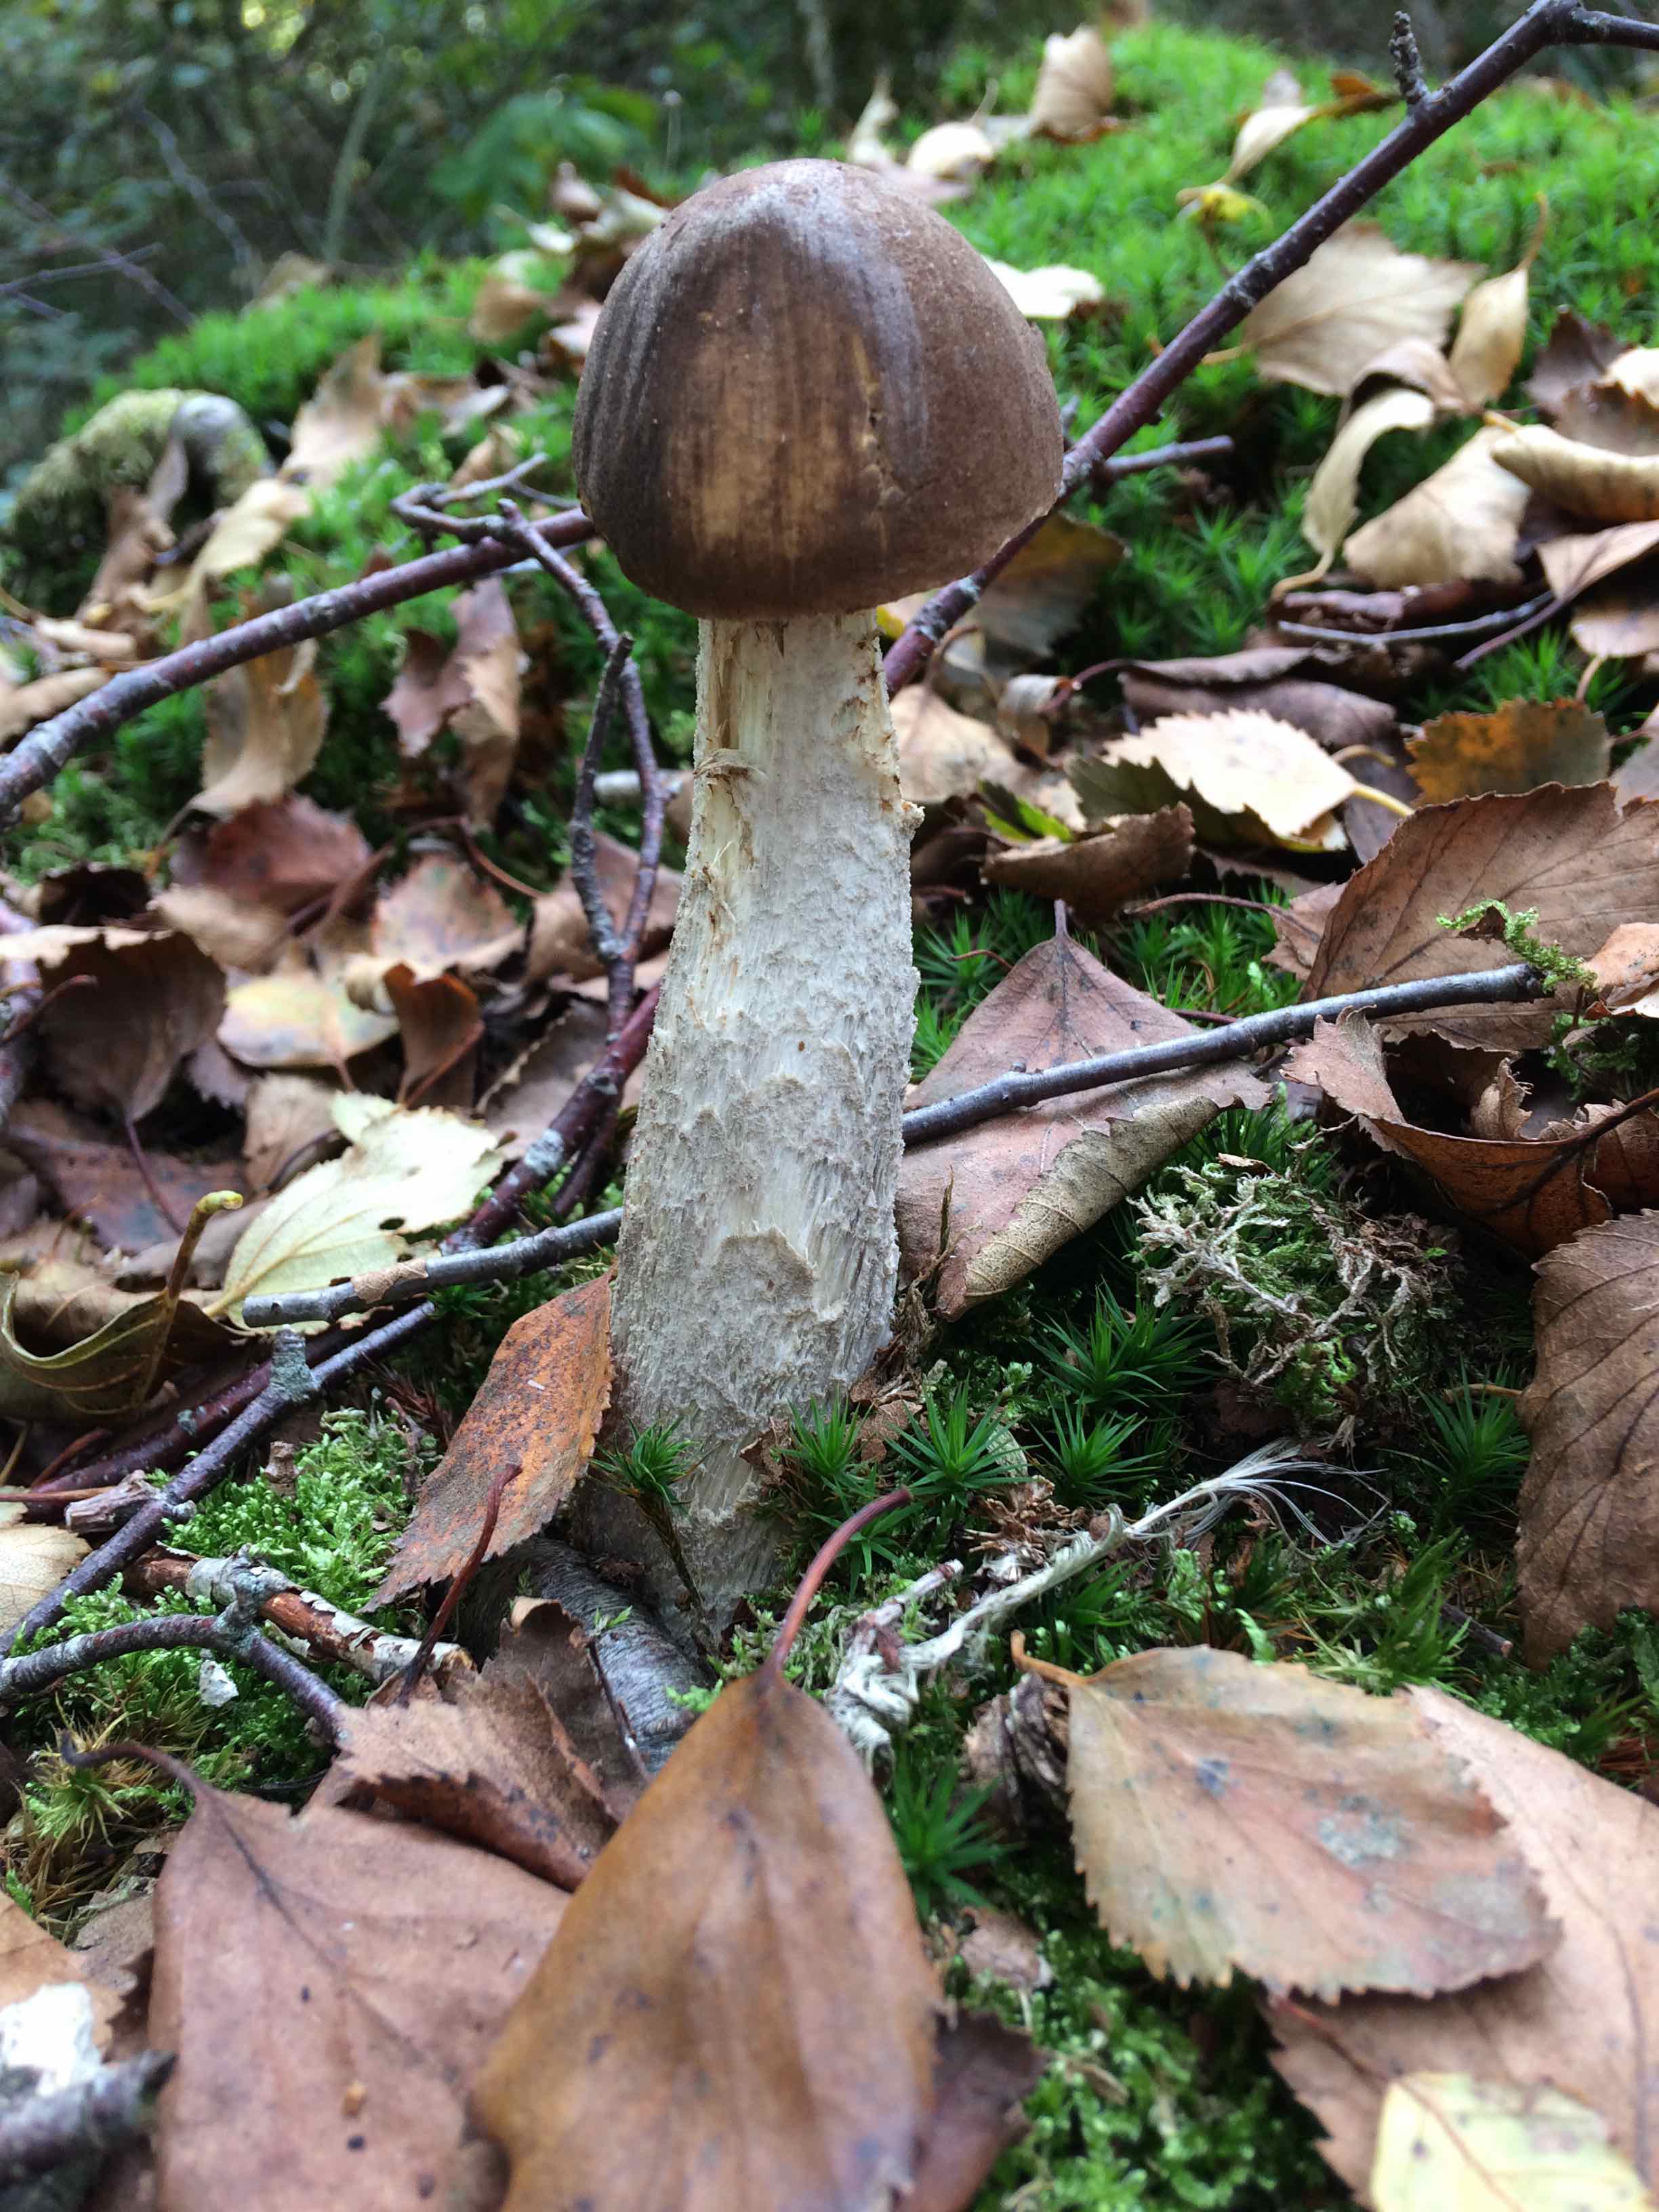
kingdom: Fungi
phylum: Basidiomycota
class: Agaricomycetes
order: Boletales
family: Boletaceae
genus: Leccinellum
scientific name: Leccinellum
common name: skælrørhat
